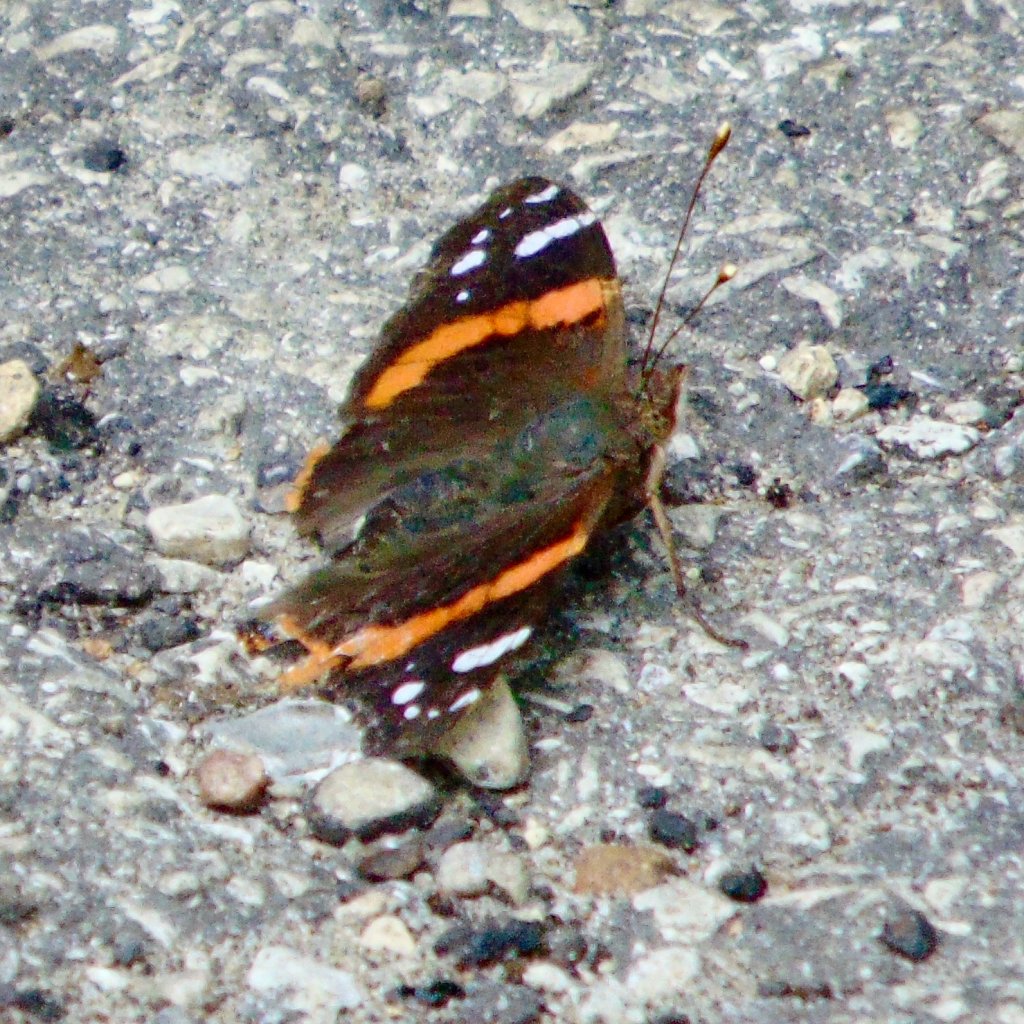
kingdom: Animalia
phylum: Arthropoda
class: Insecta
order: Lepidoptera
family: Nymphalidae
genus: Vanessa
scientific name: Vanessa atalanta
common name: Red Admiral
